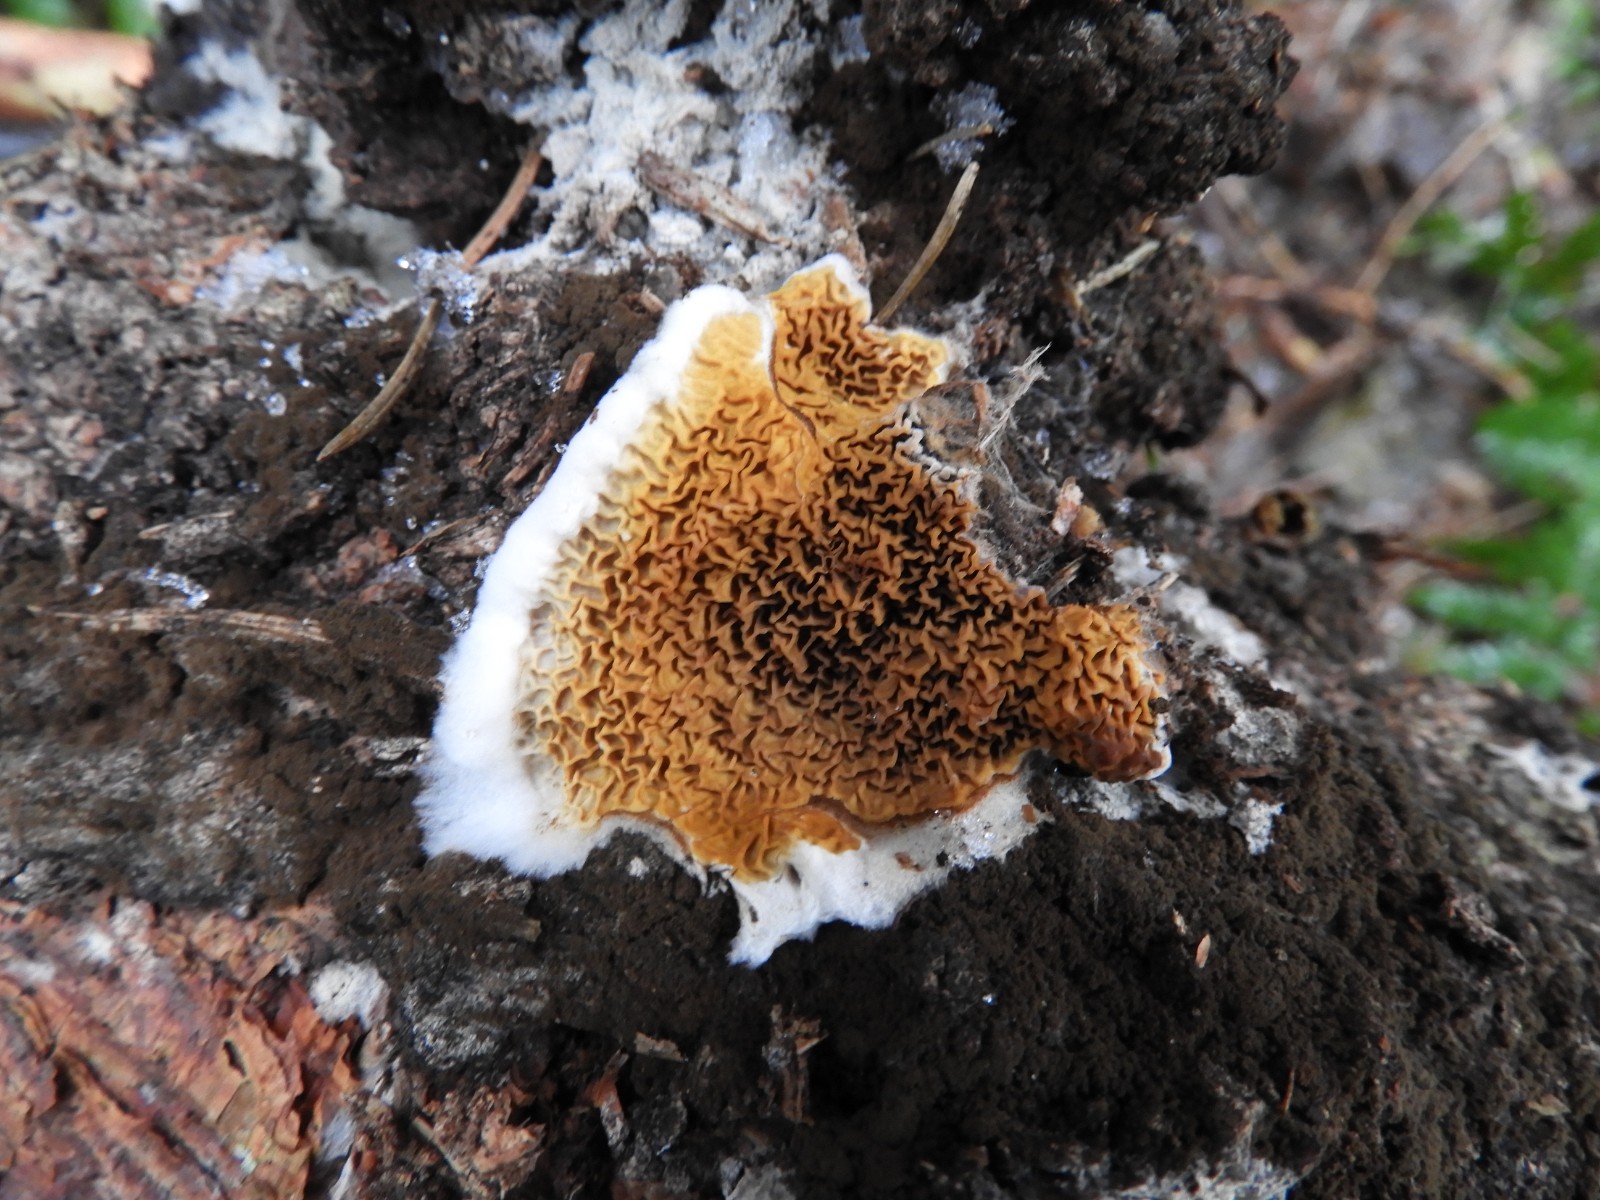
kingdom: Fungi
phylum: Basidiomycota
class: Agaricomycetes
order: Boletales
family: Serpulaceae
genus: Serpula
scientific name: Serpula himantioides
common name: tyndkødet hussvamp
